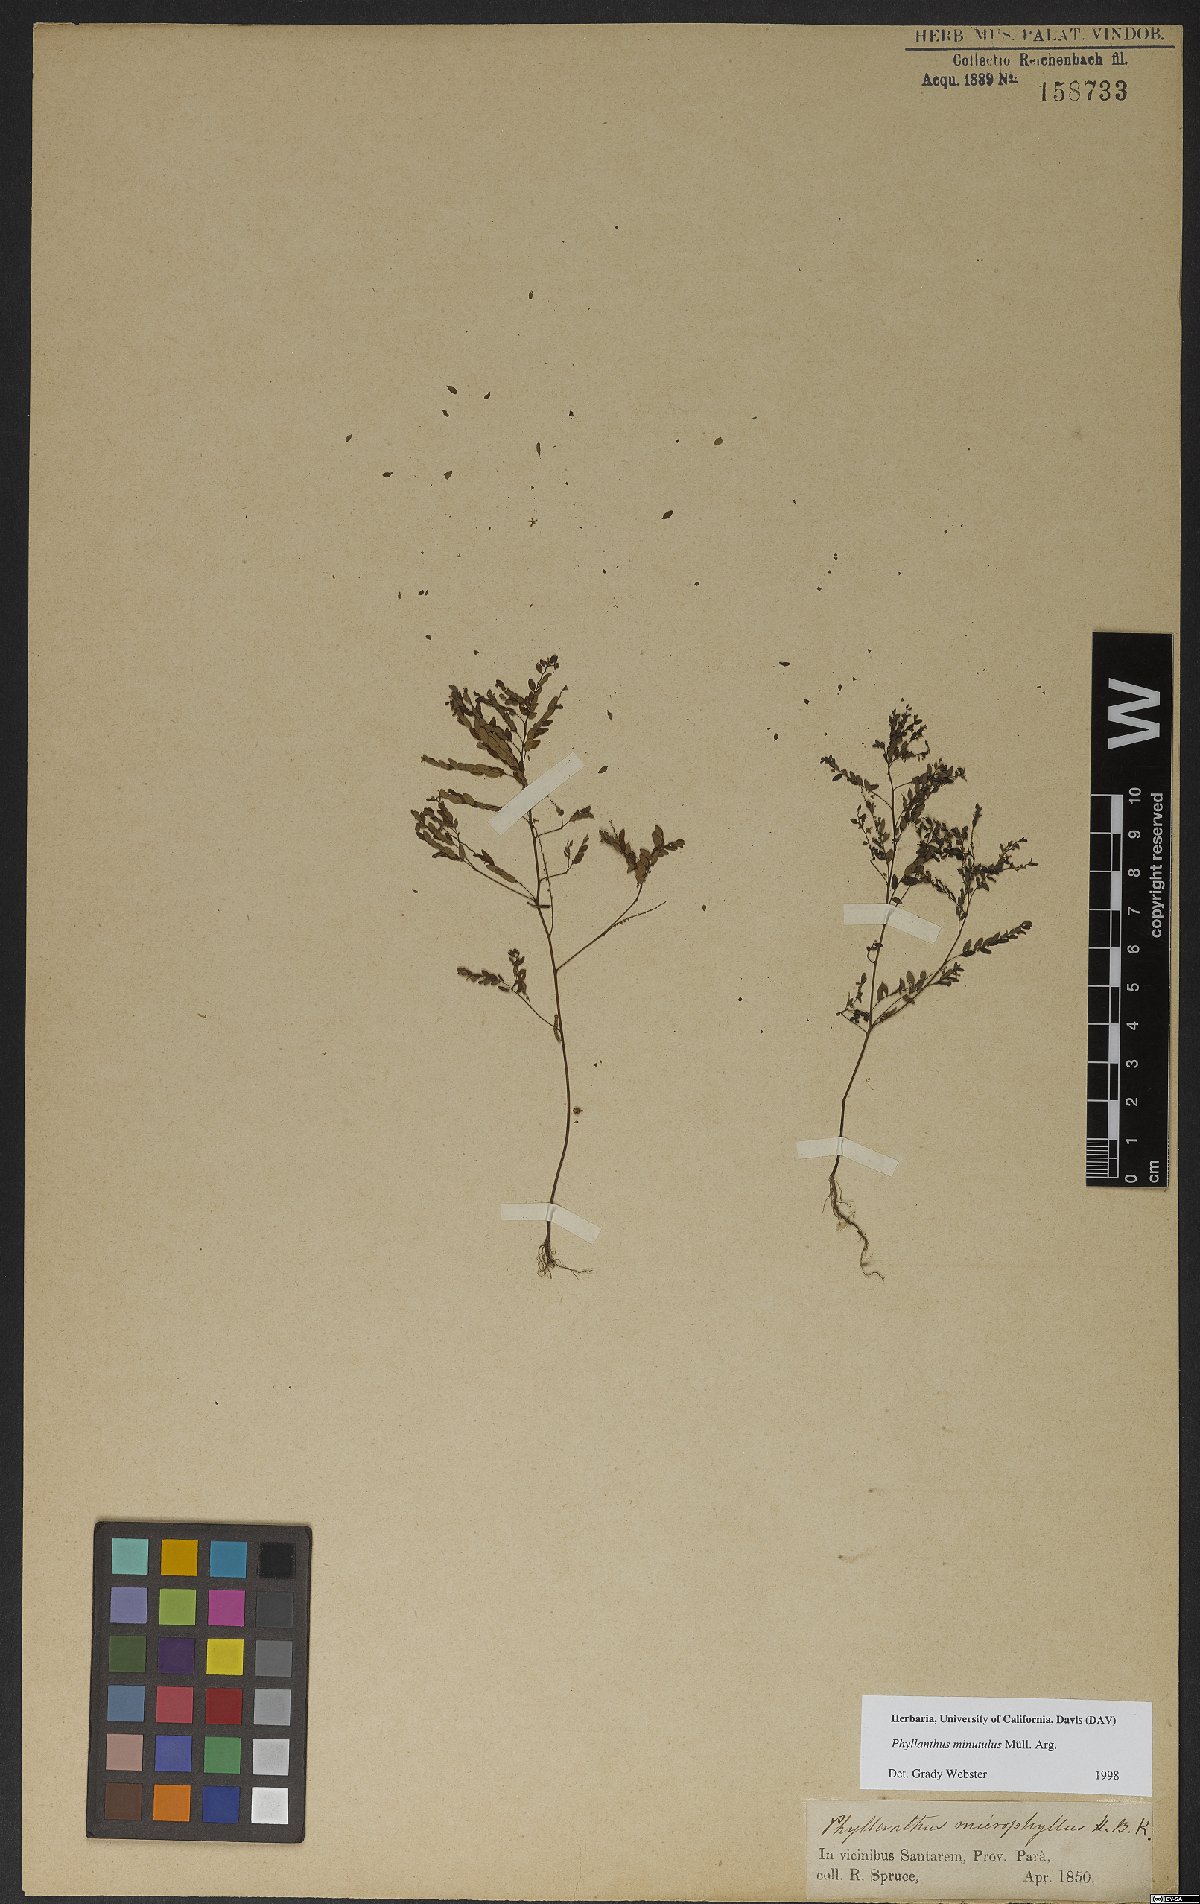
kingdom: Plantae
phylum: Tracheophyta
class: Magnoliopsida
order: Malpighiales
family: Phyllanthaceae
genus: Phyllanthus
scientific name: Phyllanthus minutulus
